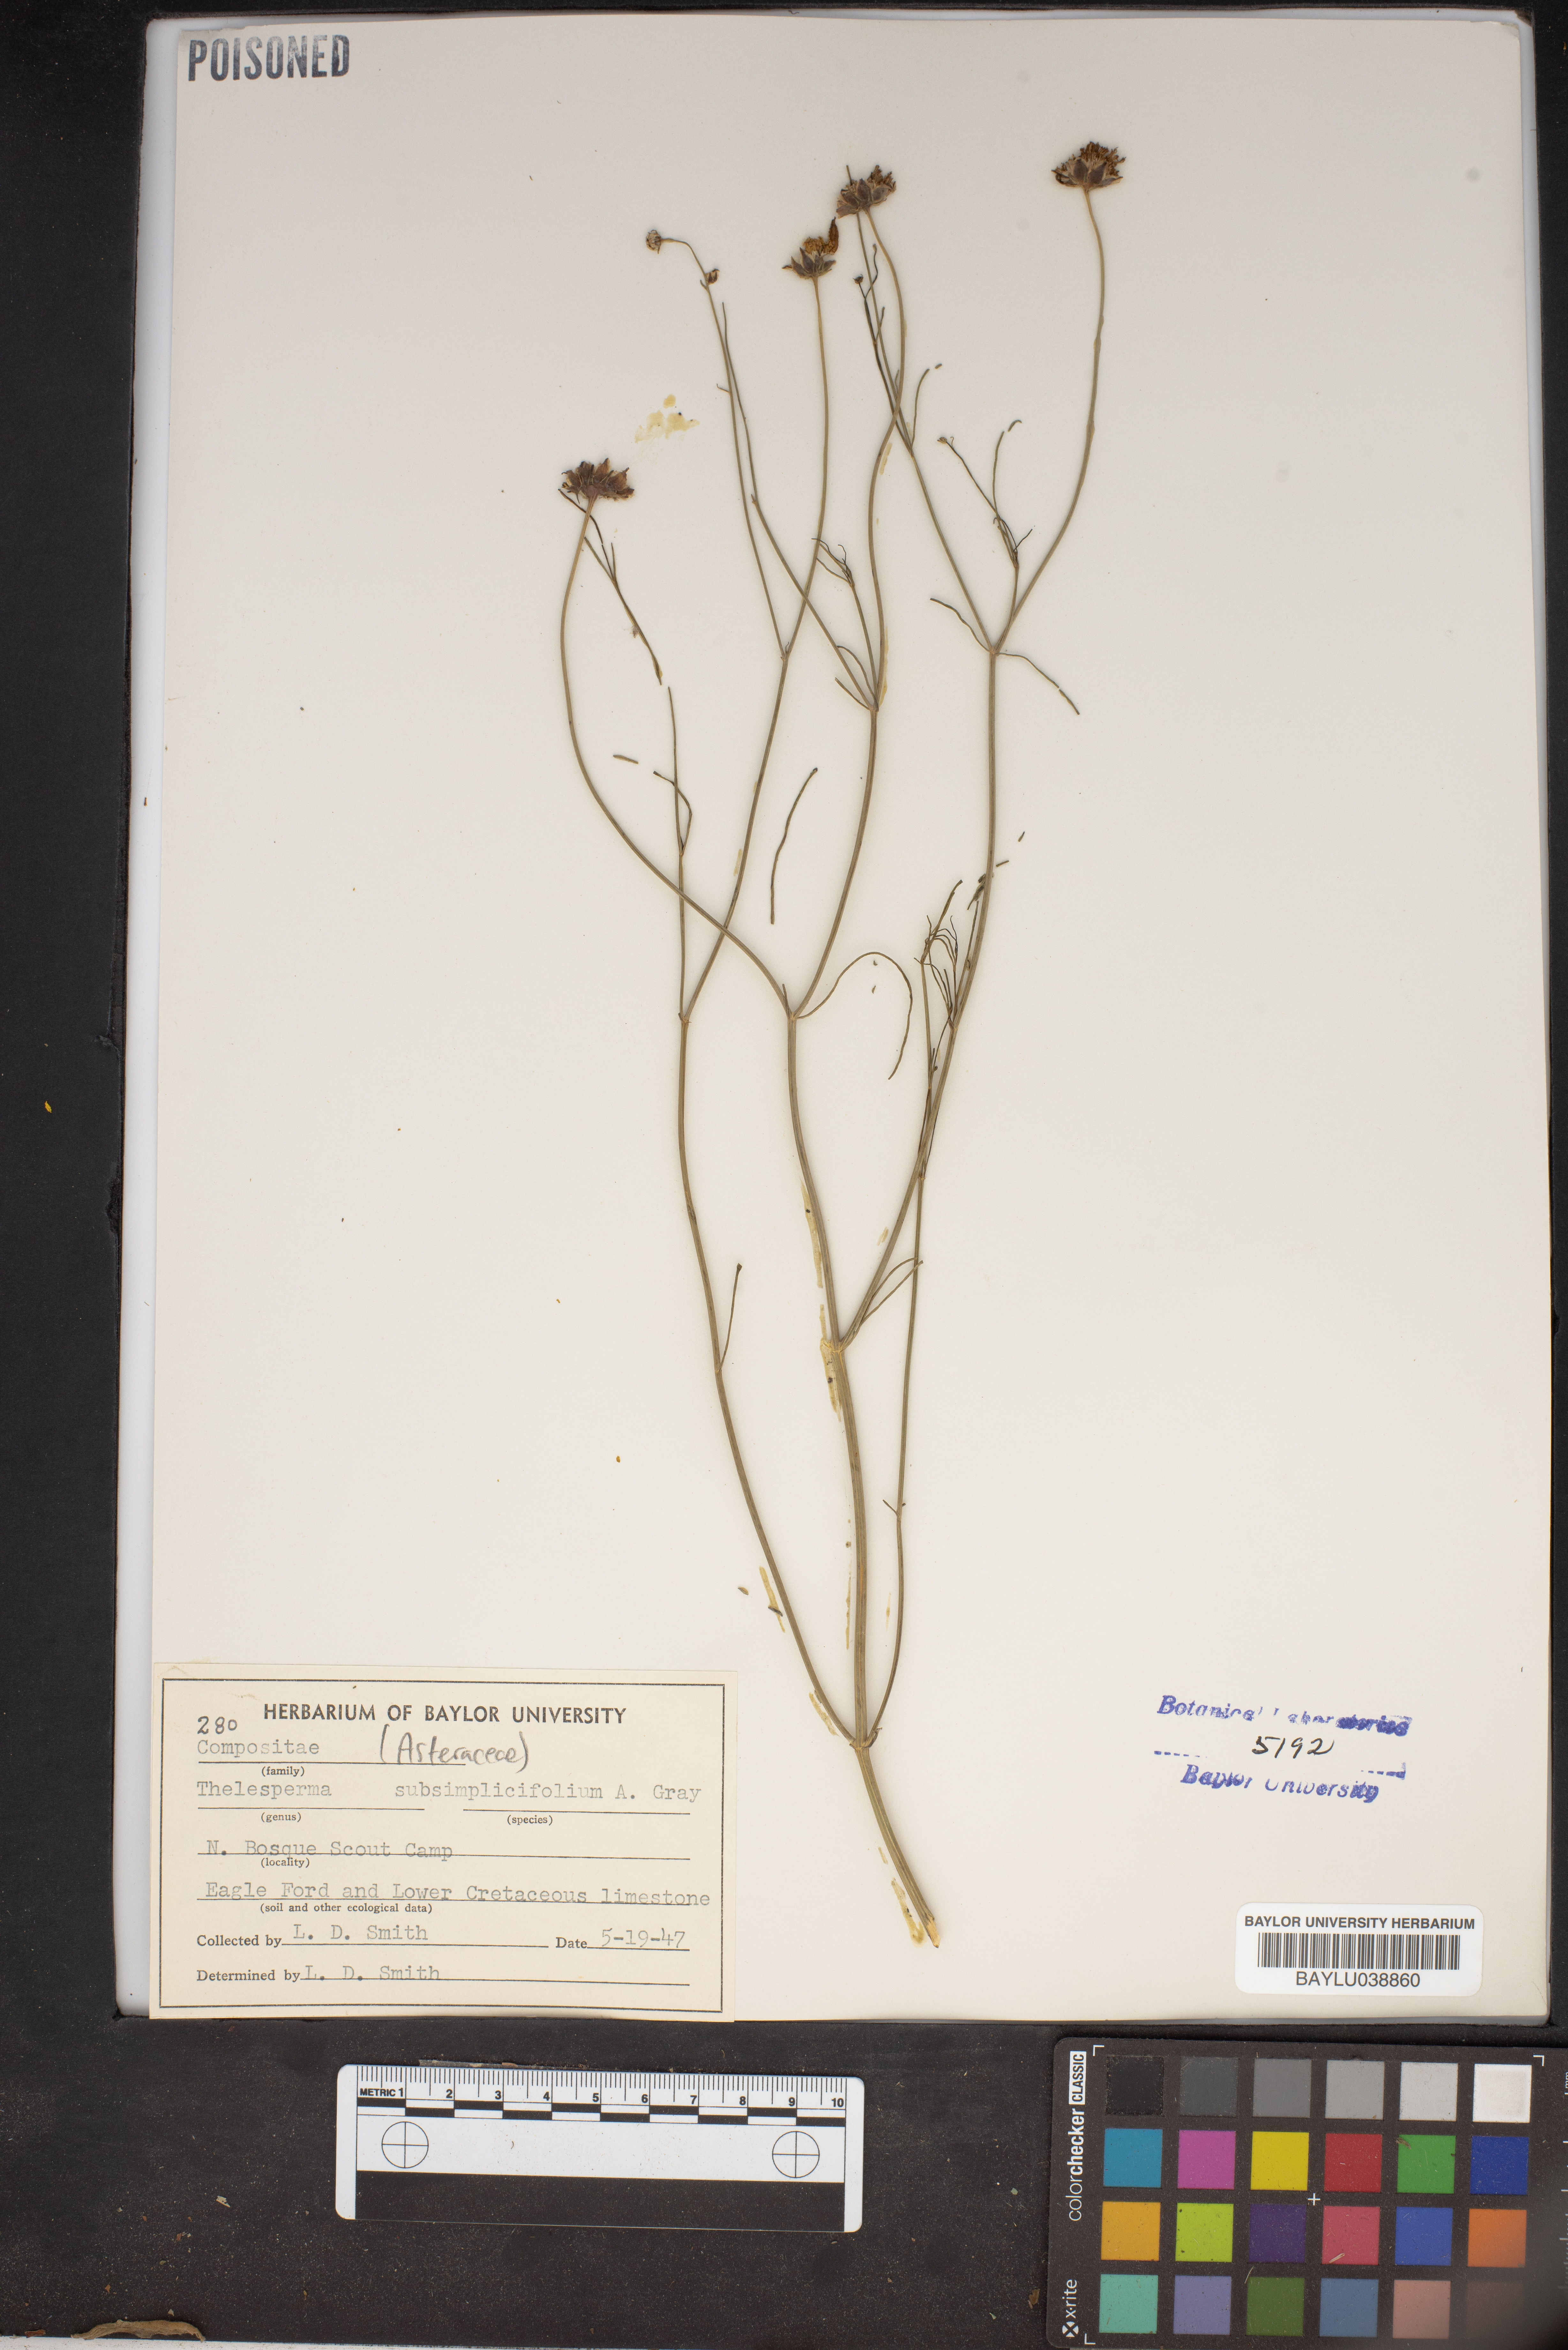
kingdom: Plantae
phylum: Tracheophyta
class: Magnoliopsida
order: Asterales
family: Asteraceae
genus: Thelesperma
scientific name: Thelesperma subsimplicifolium
